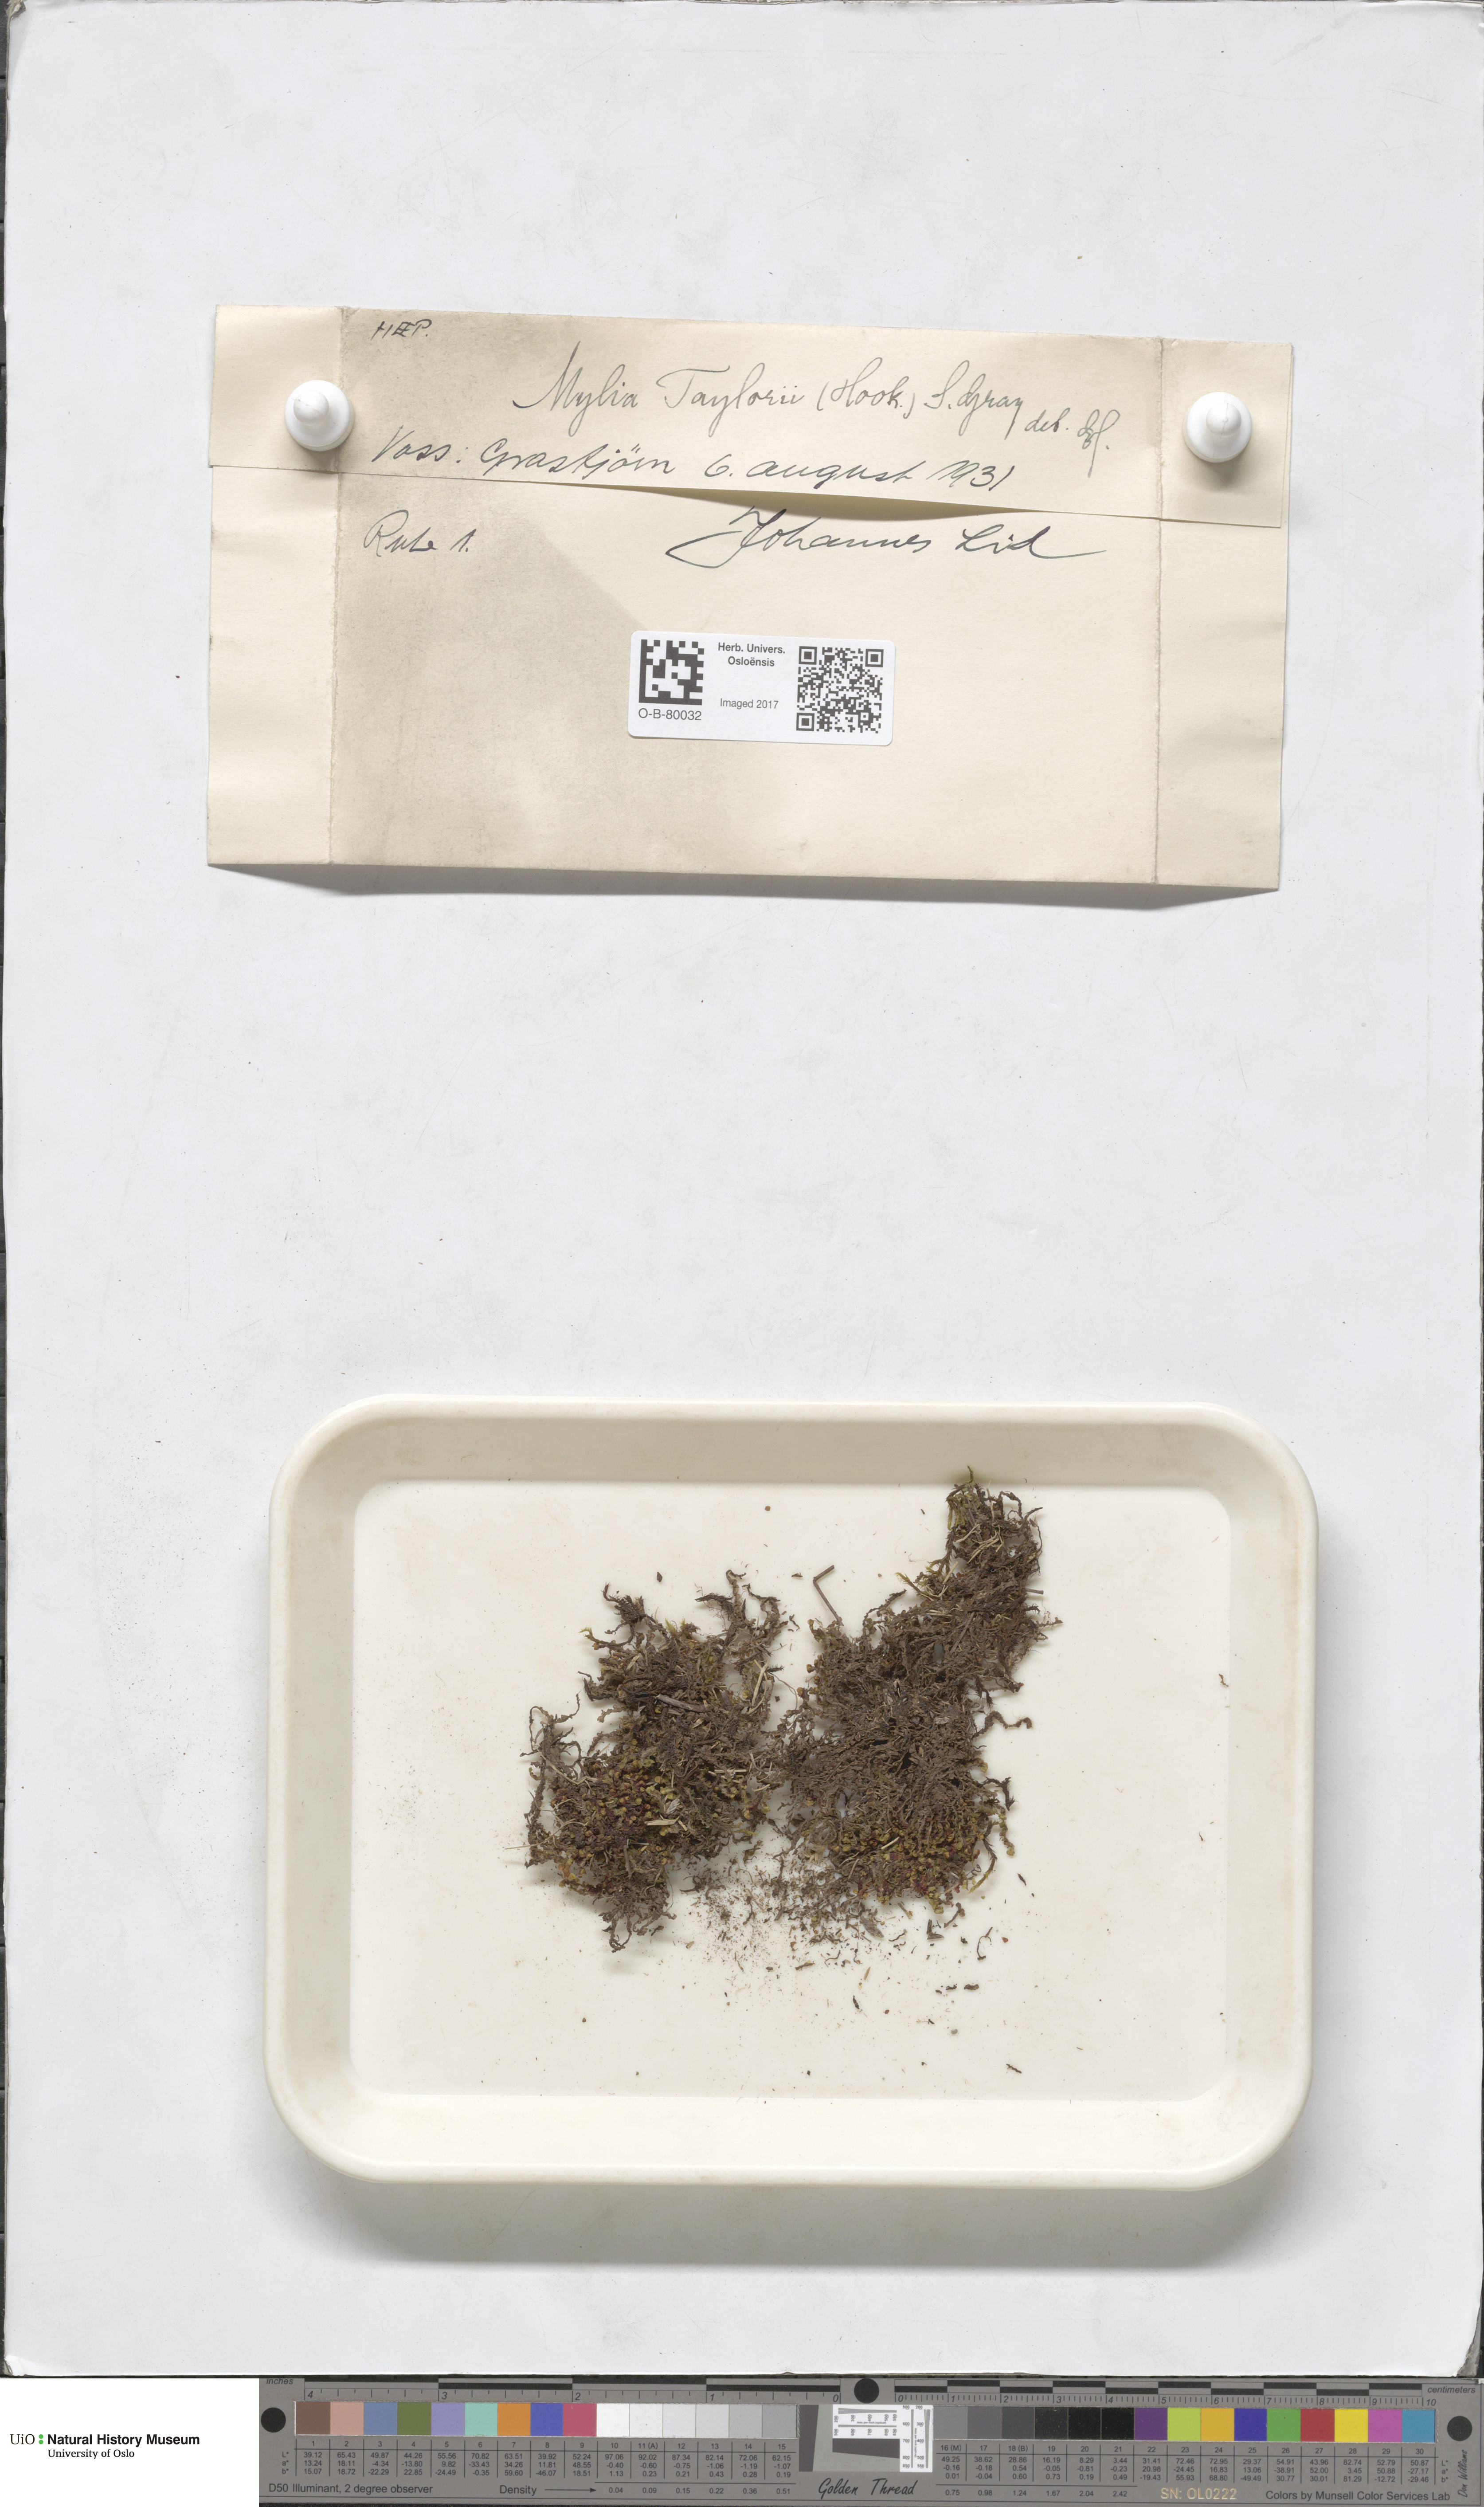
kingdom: Plantae
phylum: Marchantiophyta
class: Jungermanniopsida
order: Jungermanniales
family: Myliaceae
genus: Mylia
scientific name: Mylia taylorii
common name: Taylor s flapwort
